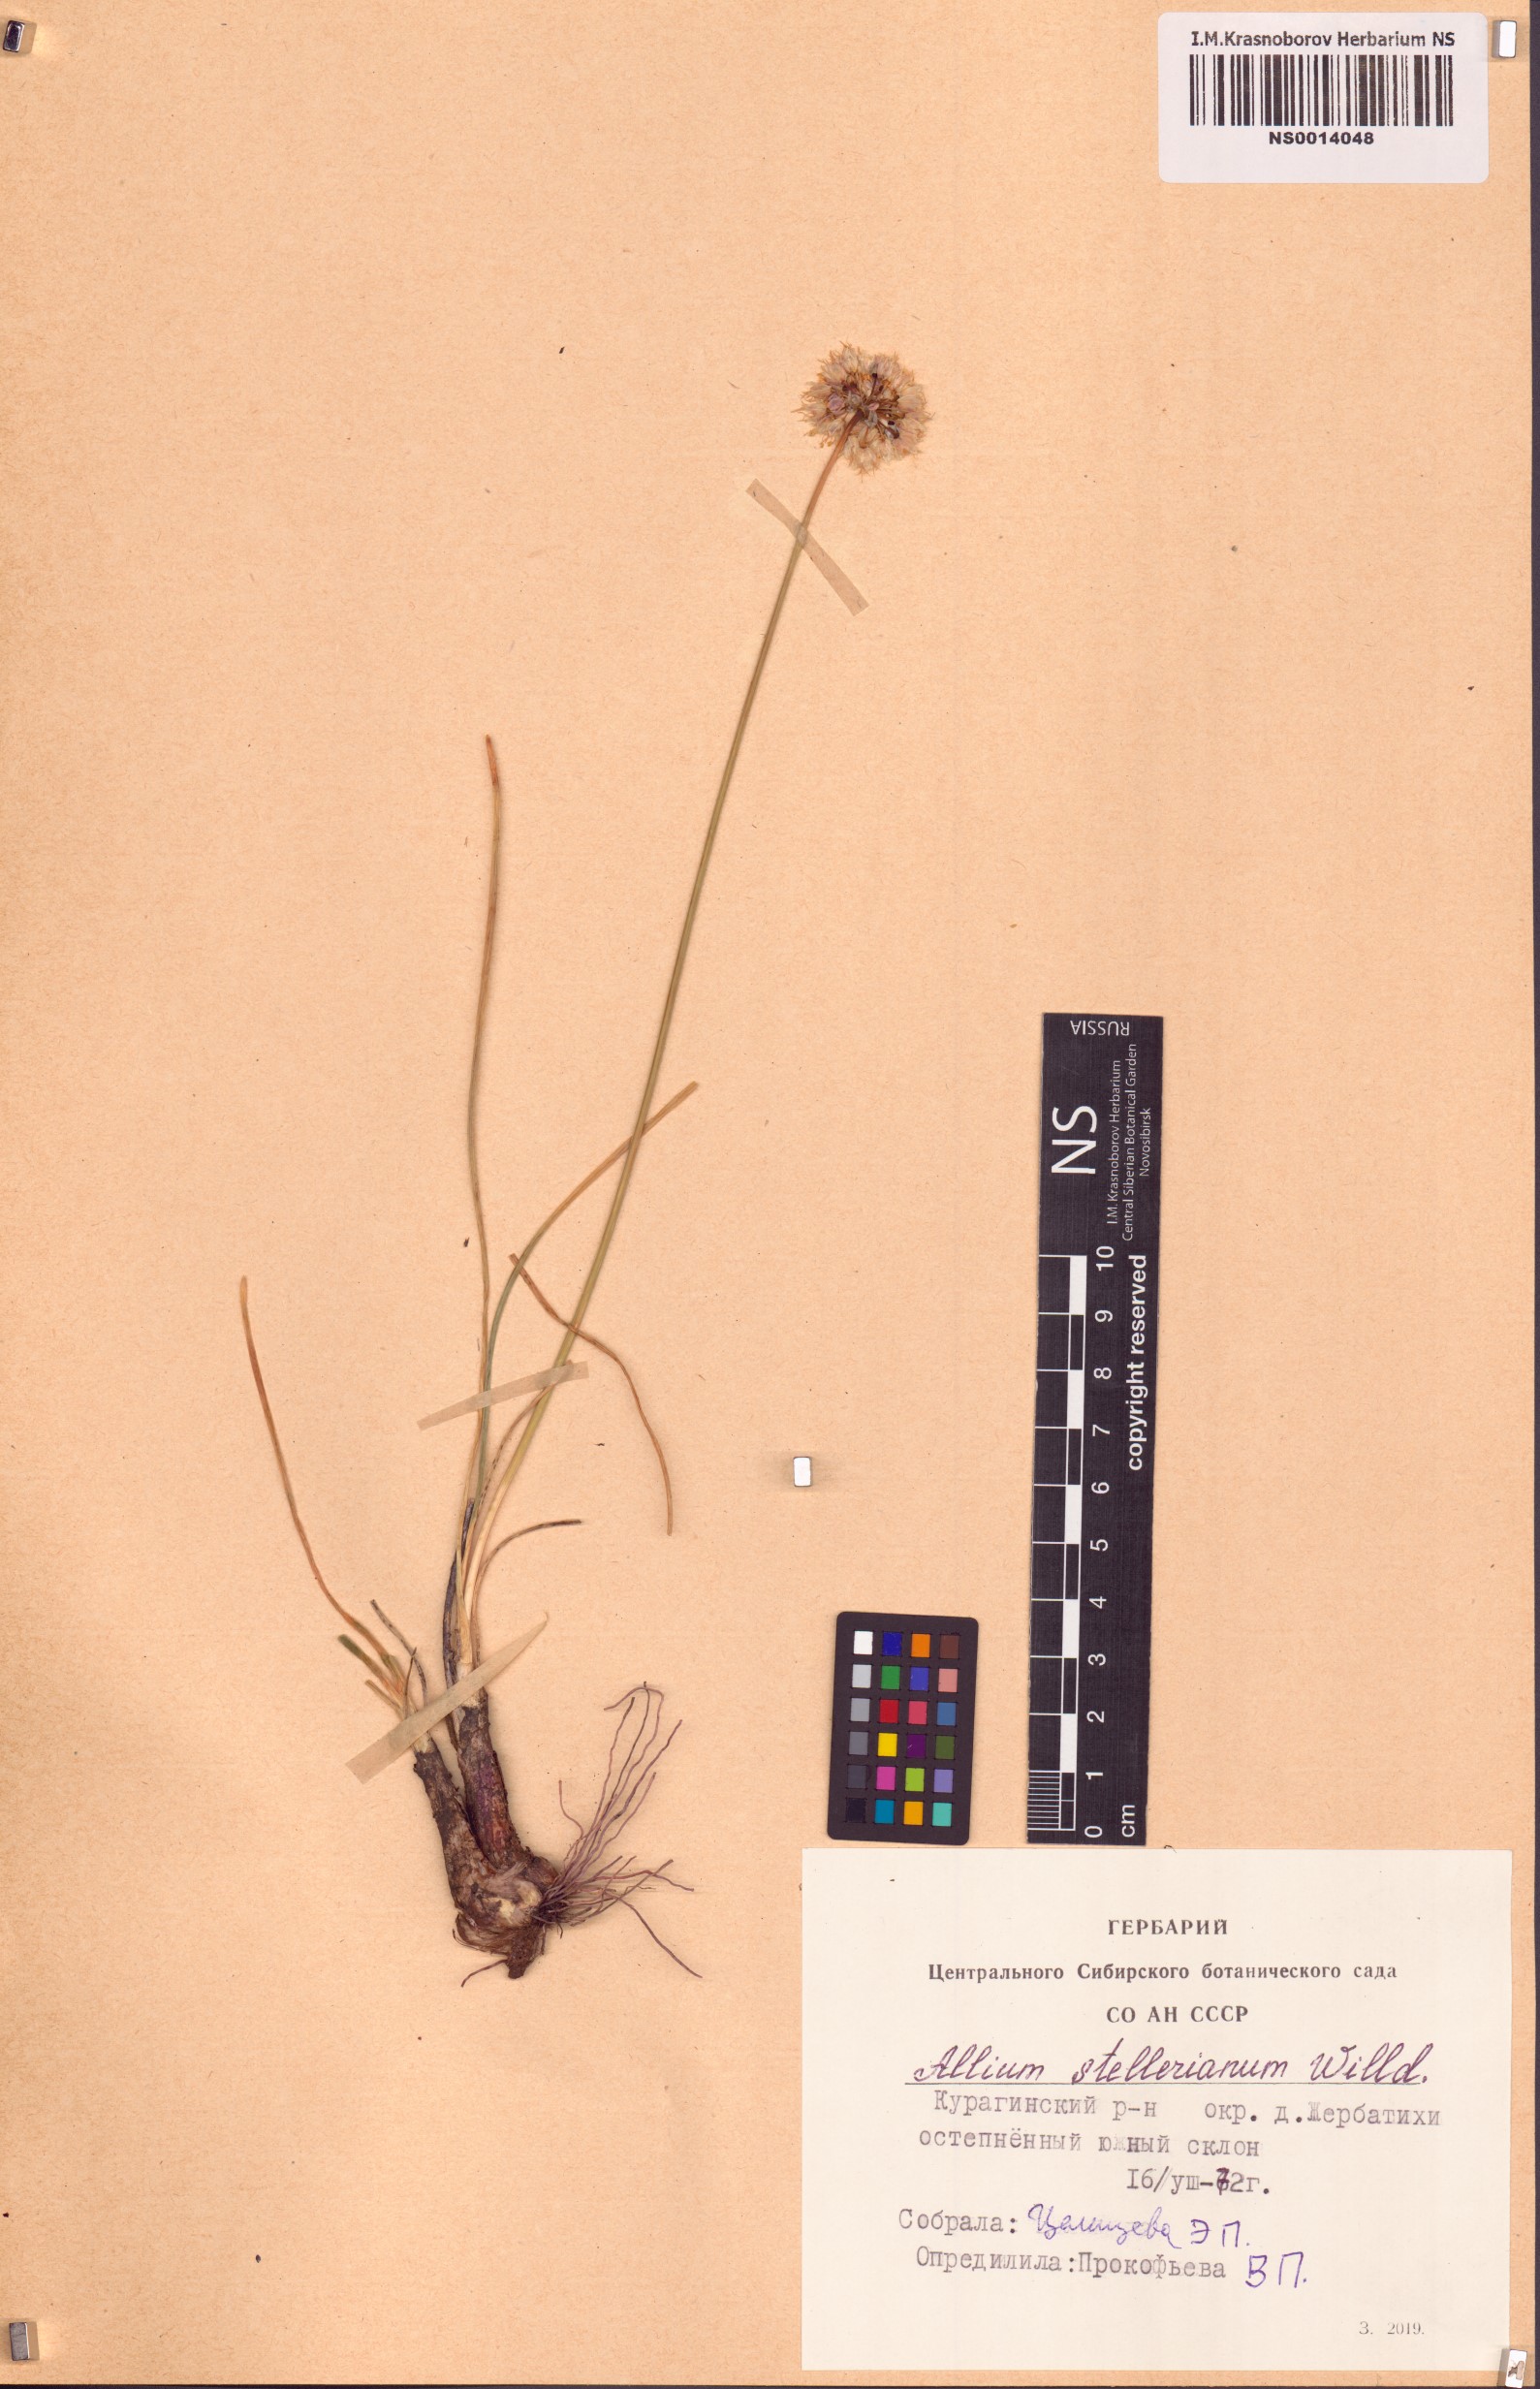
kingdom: Plantae
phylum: Tracheophyta
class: Liliopsida
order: Asparagales
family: Amaryllidaceae
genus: Allium
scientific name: Allium stellerianum
